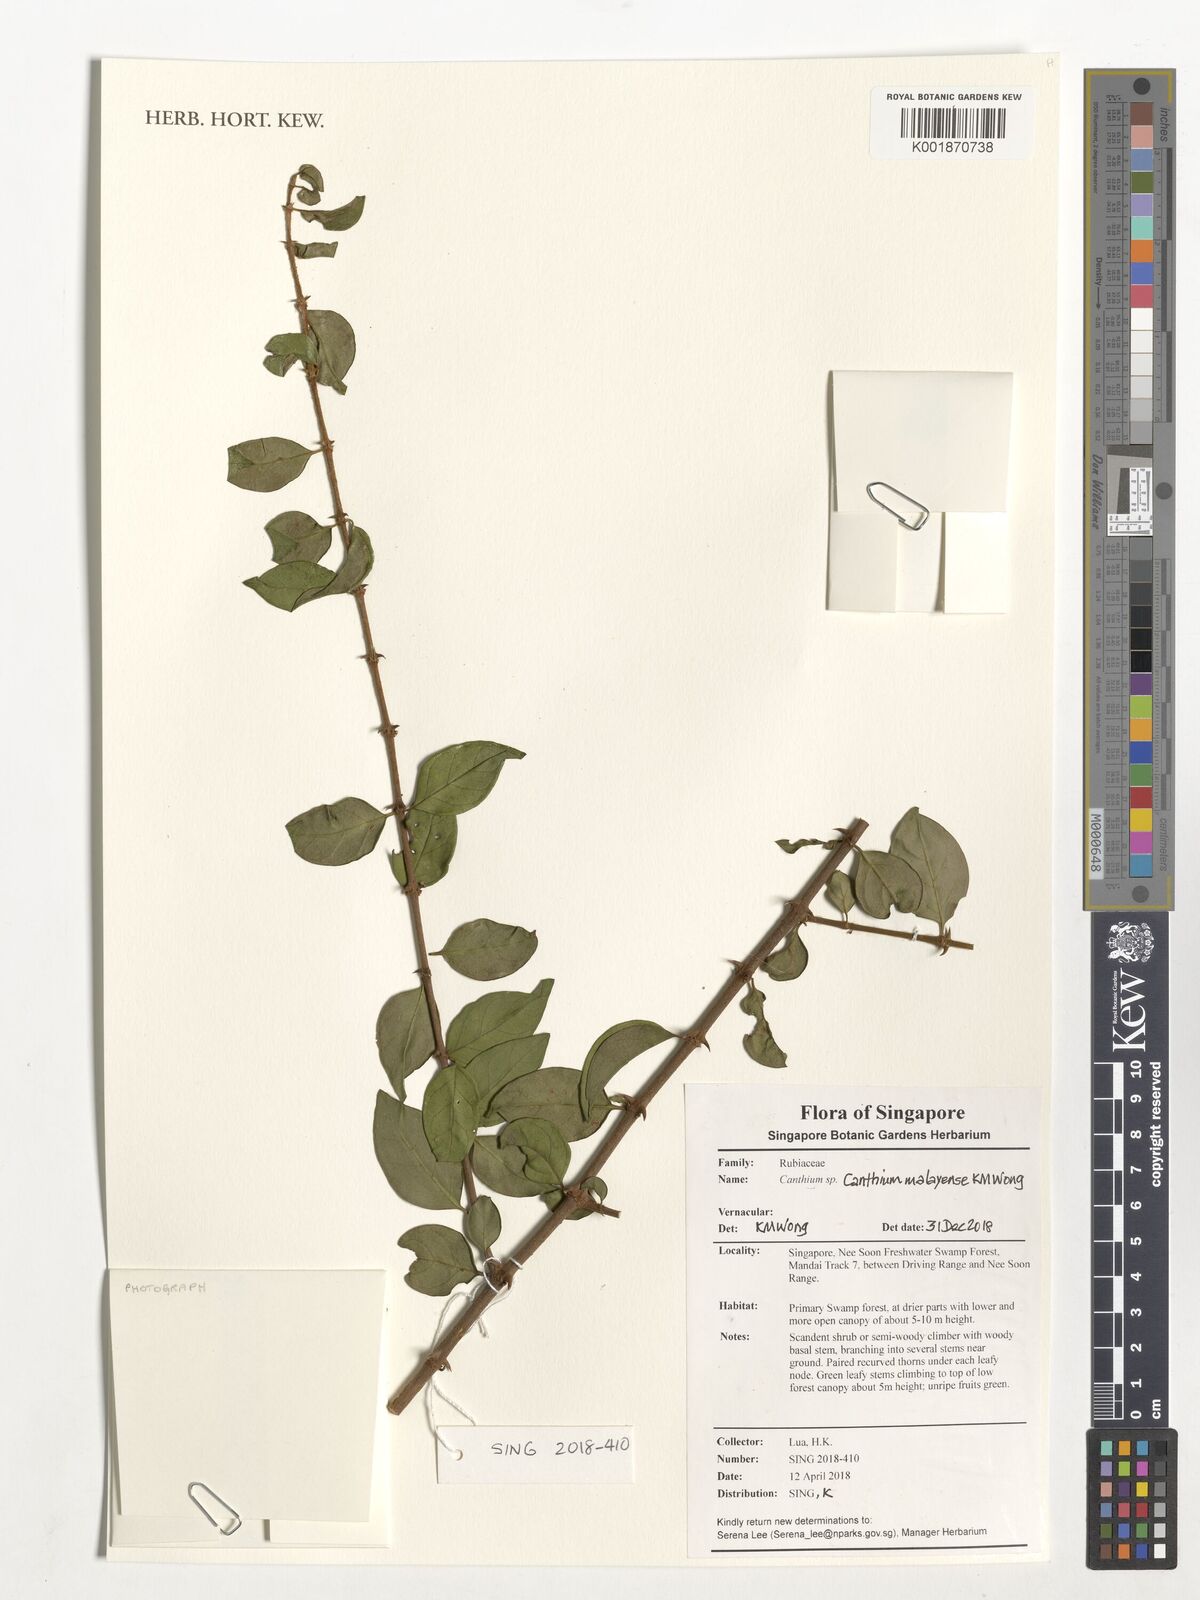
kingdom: Plantae
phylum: Tracheophyta
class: Magnoliopsida
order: Gentianales
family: Rubiaceae
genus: Canthium
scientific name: Canthium malayense
